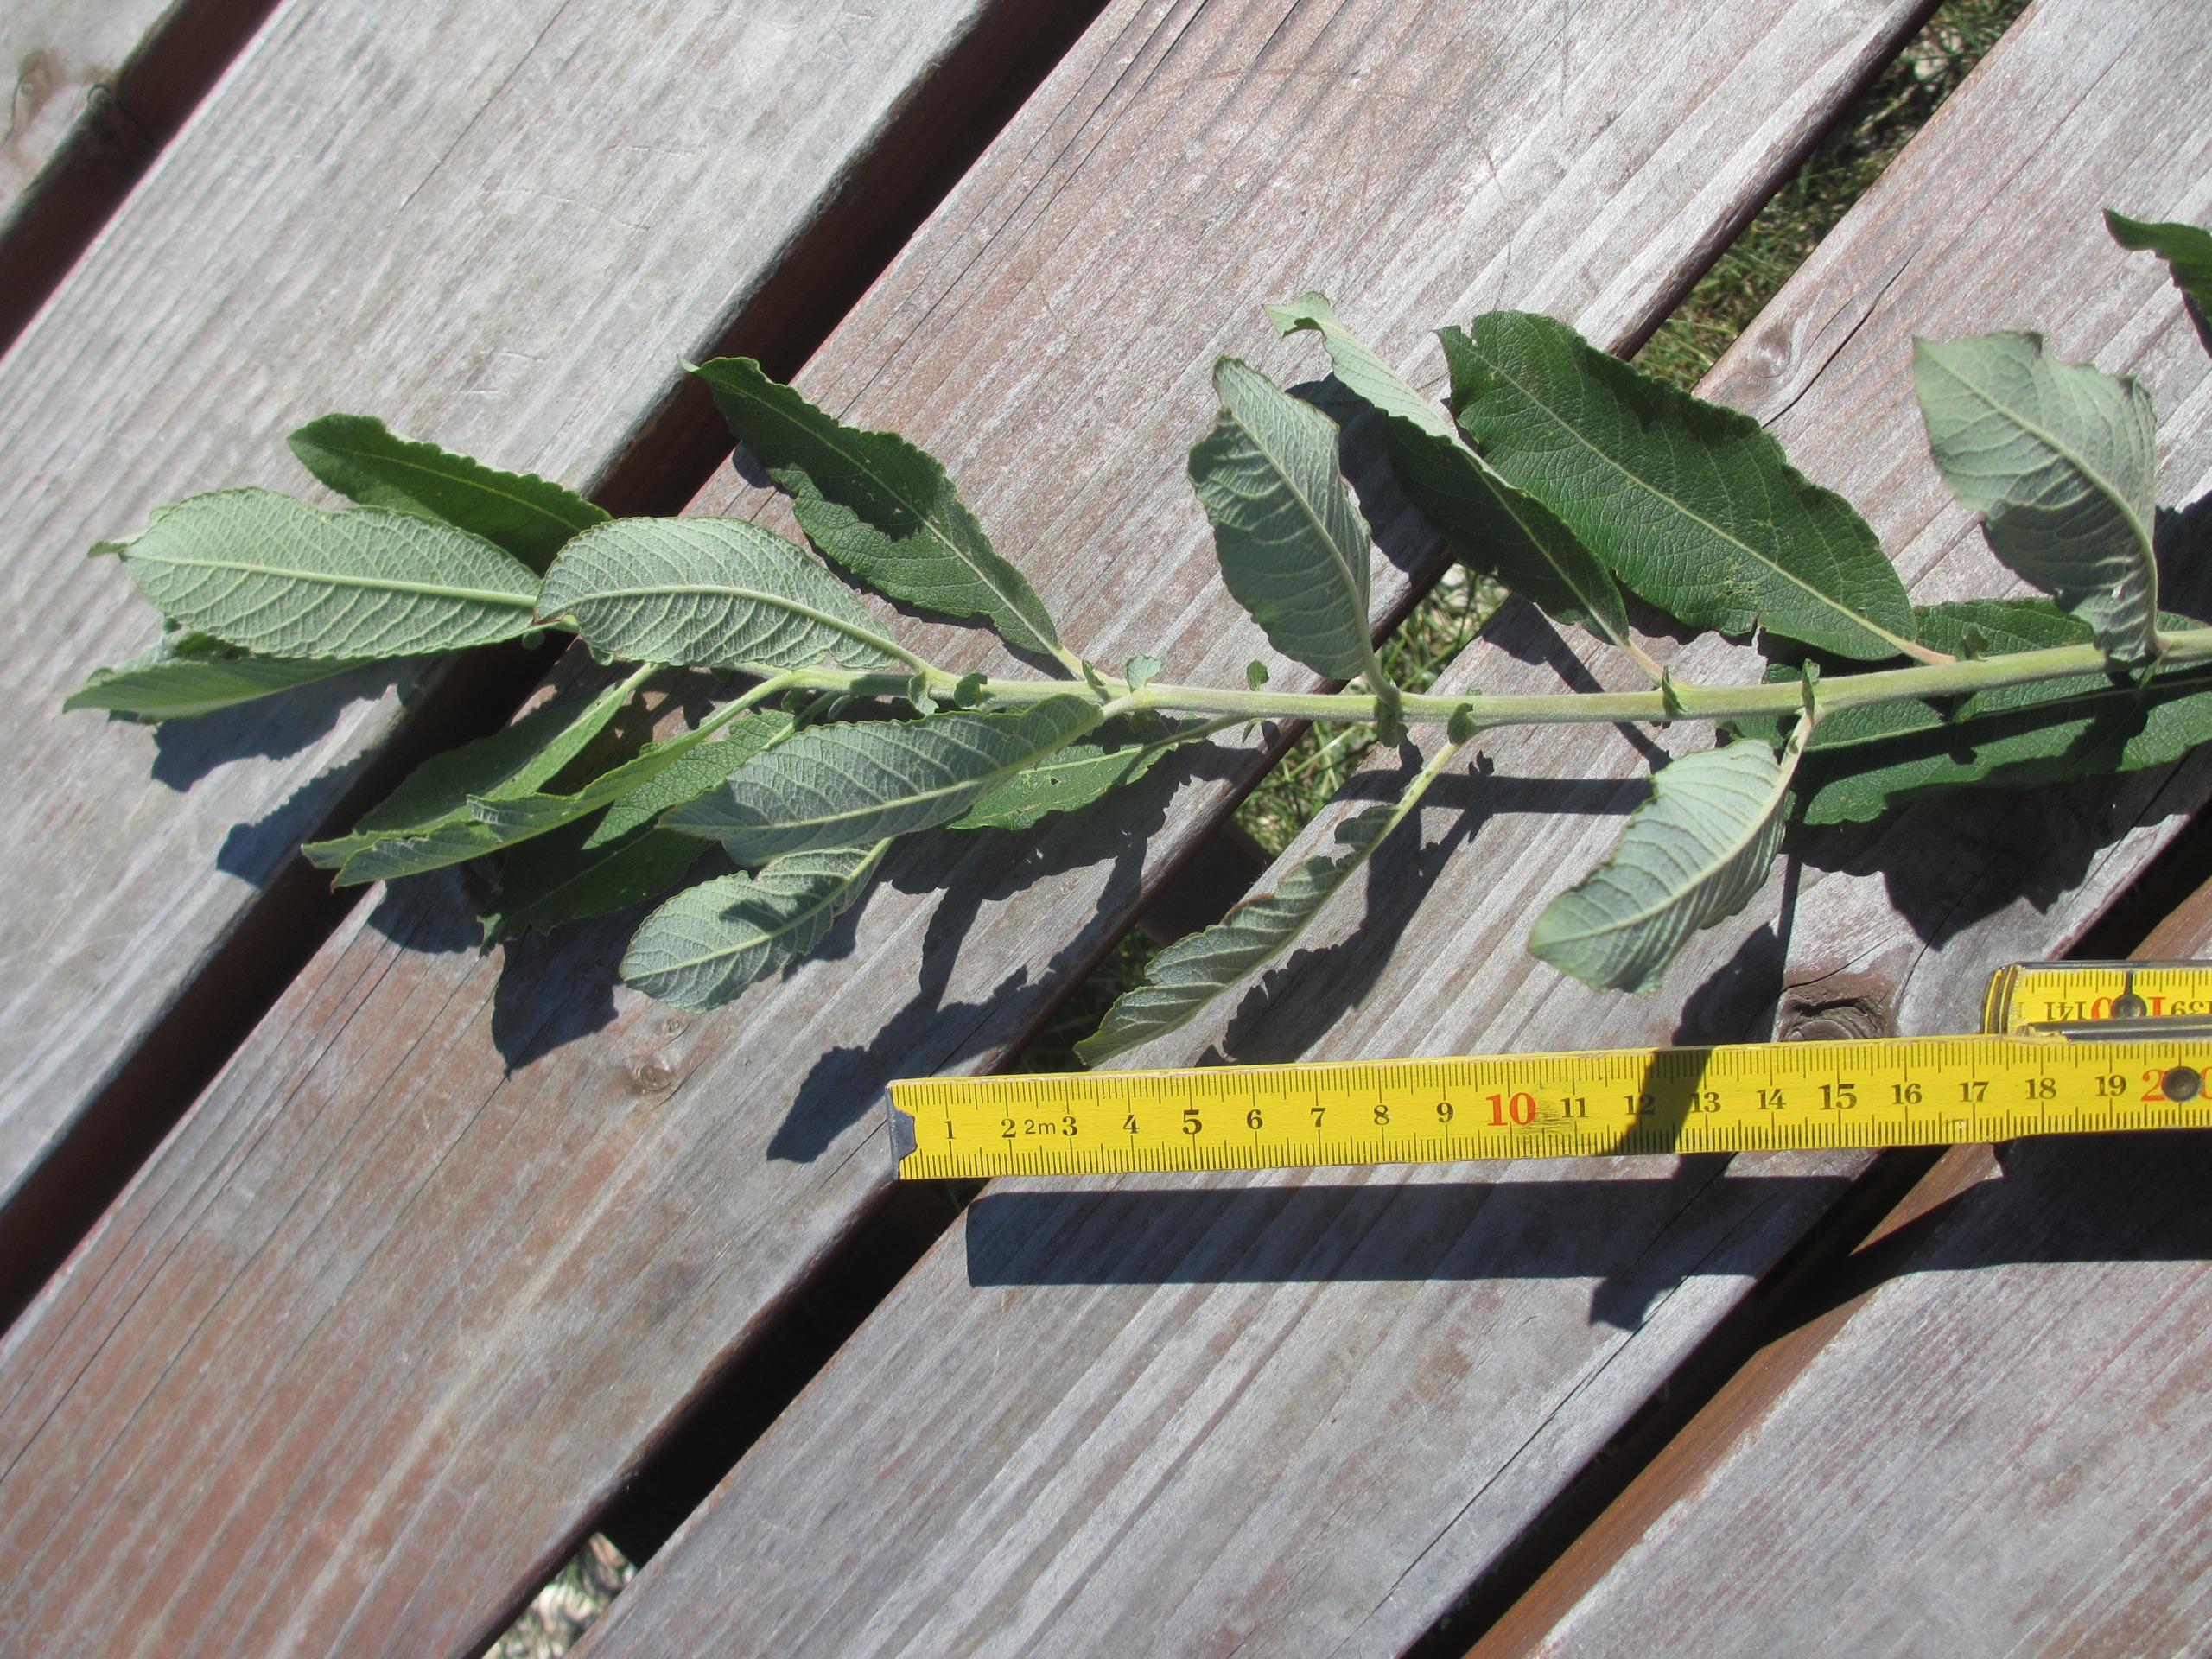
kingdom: Plantae
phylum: Tracheophyta
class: Magnoliopsida
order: Malpighiales
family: Salicaceae
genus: Salix
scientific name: Salix cinerea
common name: Grå-pil
